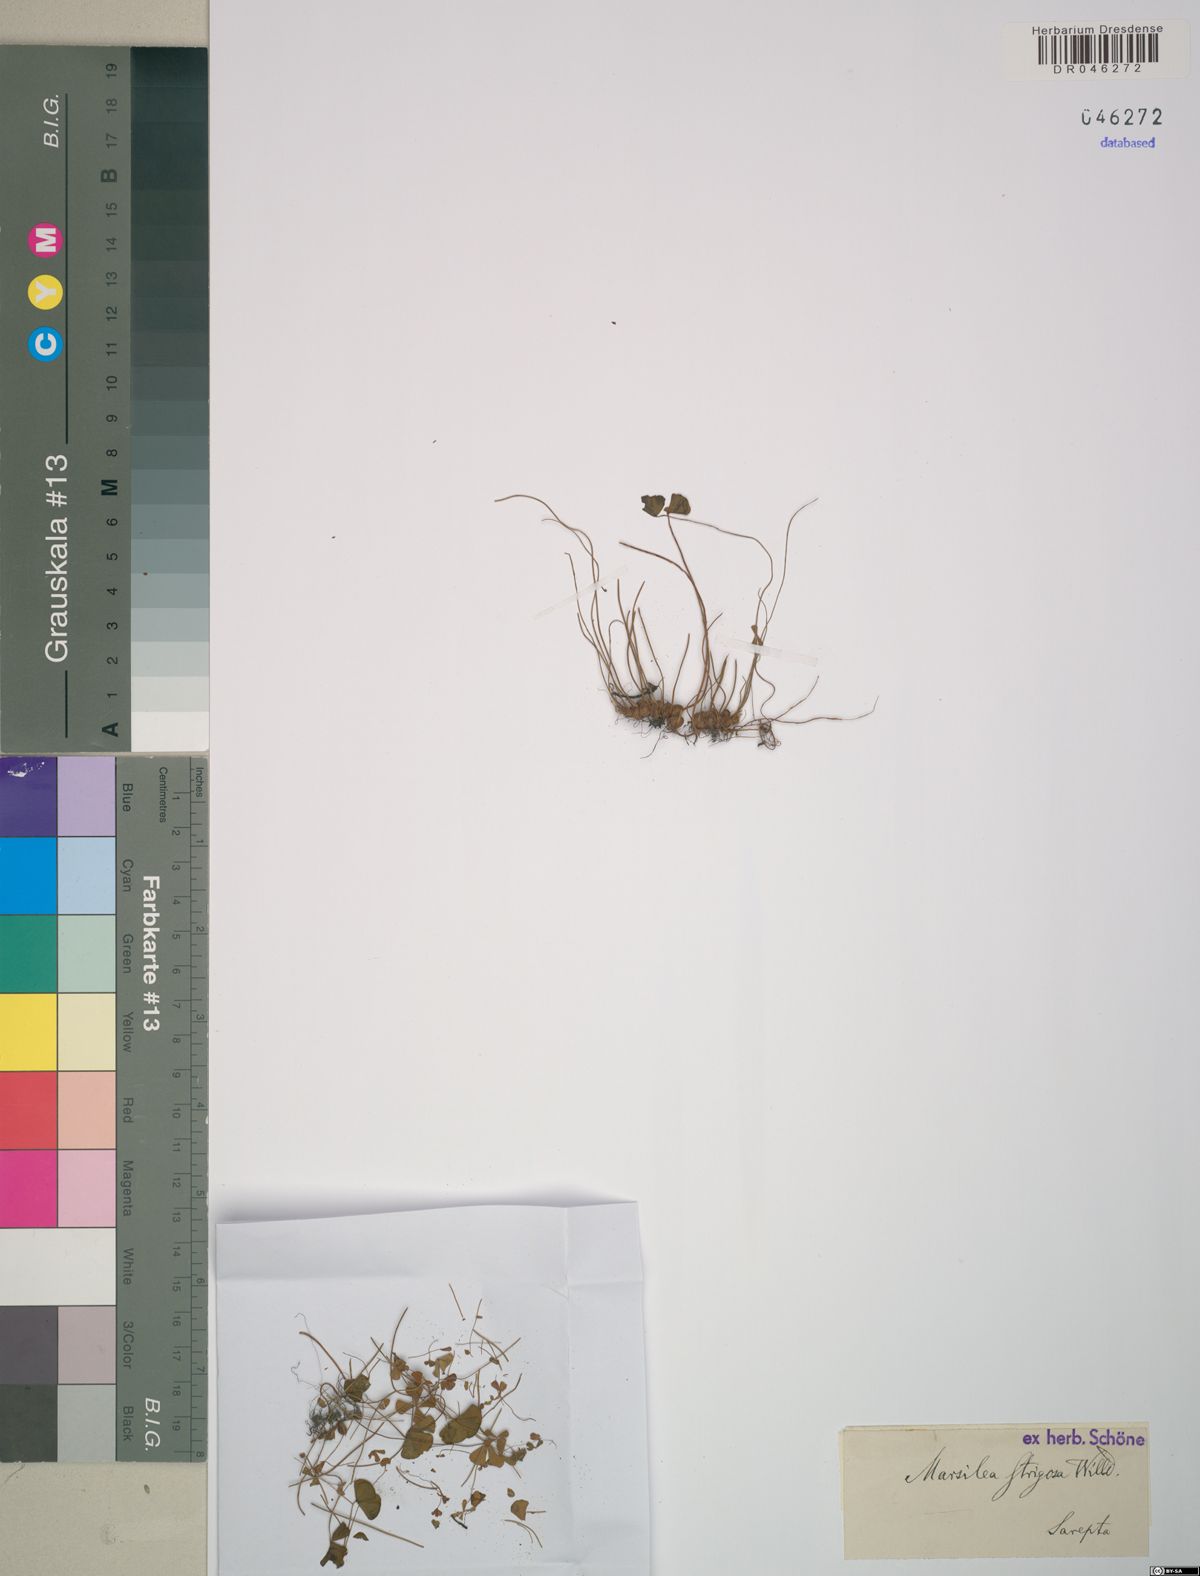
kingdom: Plantae
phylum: Tracheophyta
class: Polypodiopsida
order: Salviniales
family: Marsileaceae
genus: Marsilea
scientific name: Marsilea strigosa
